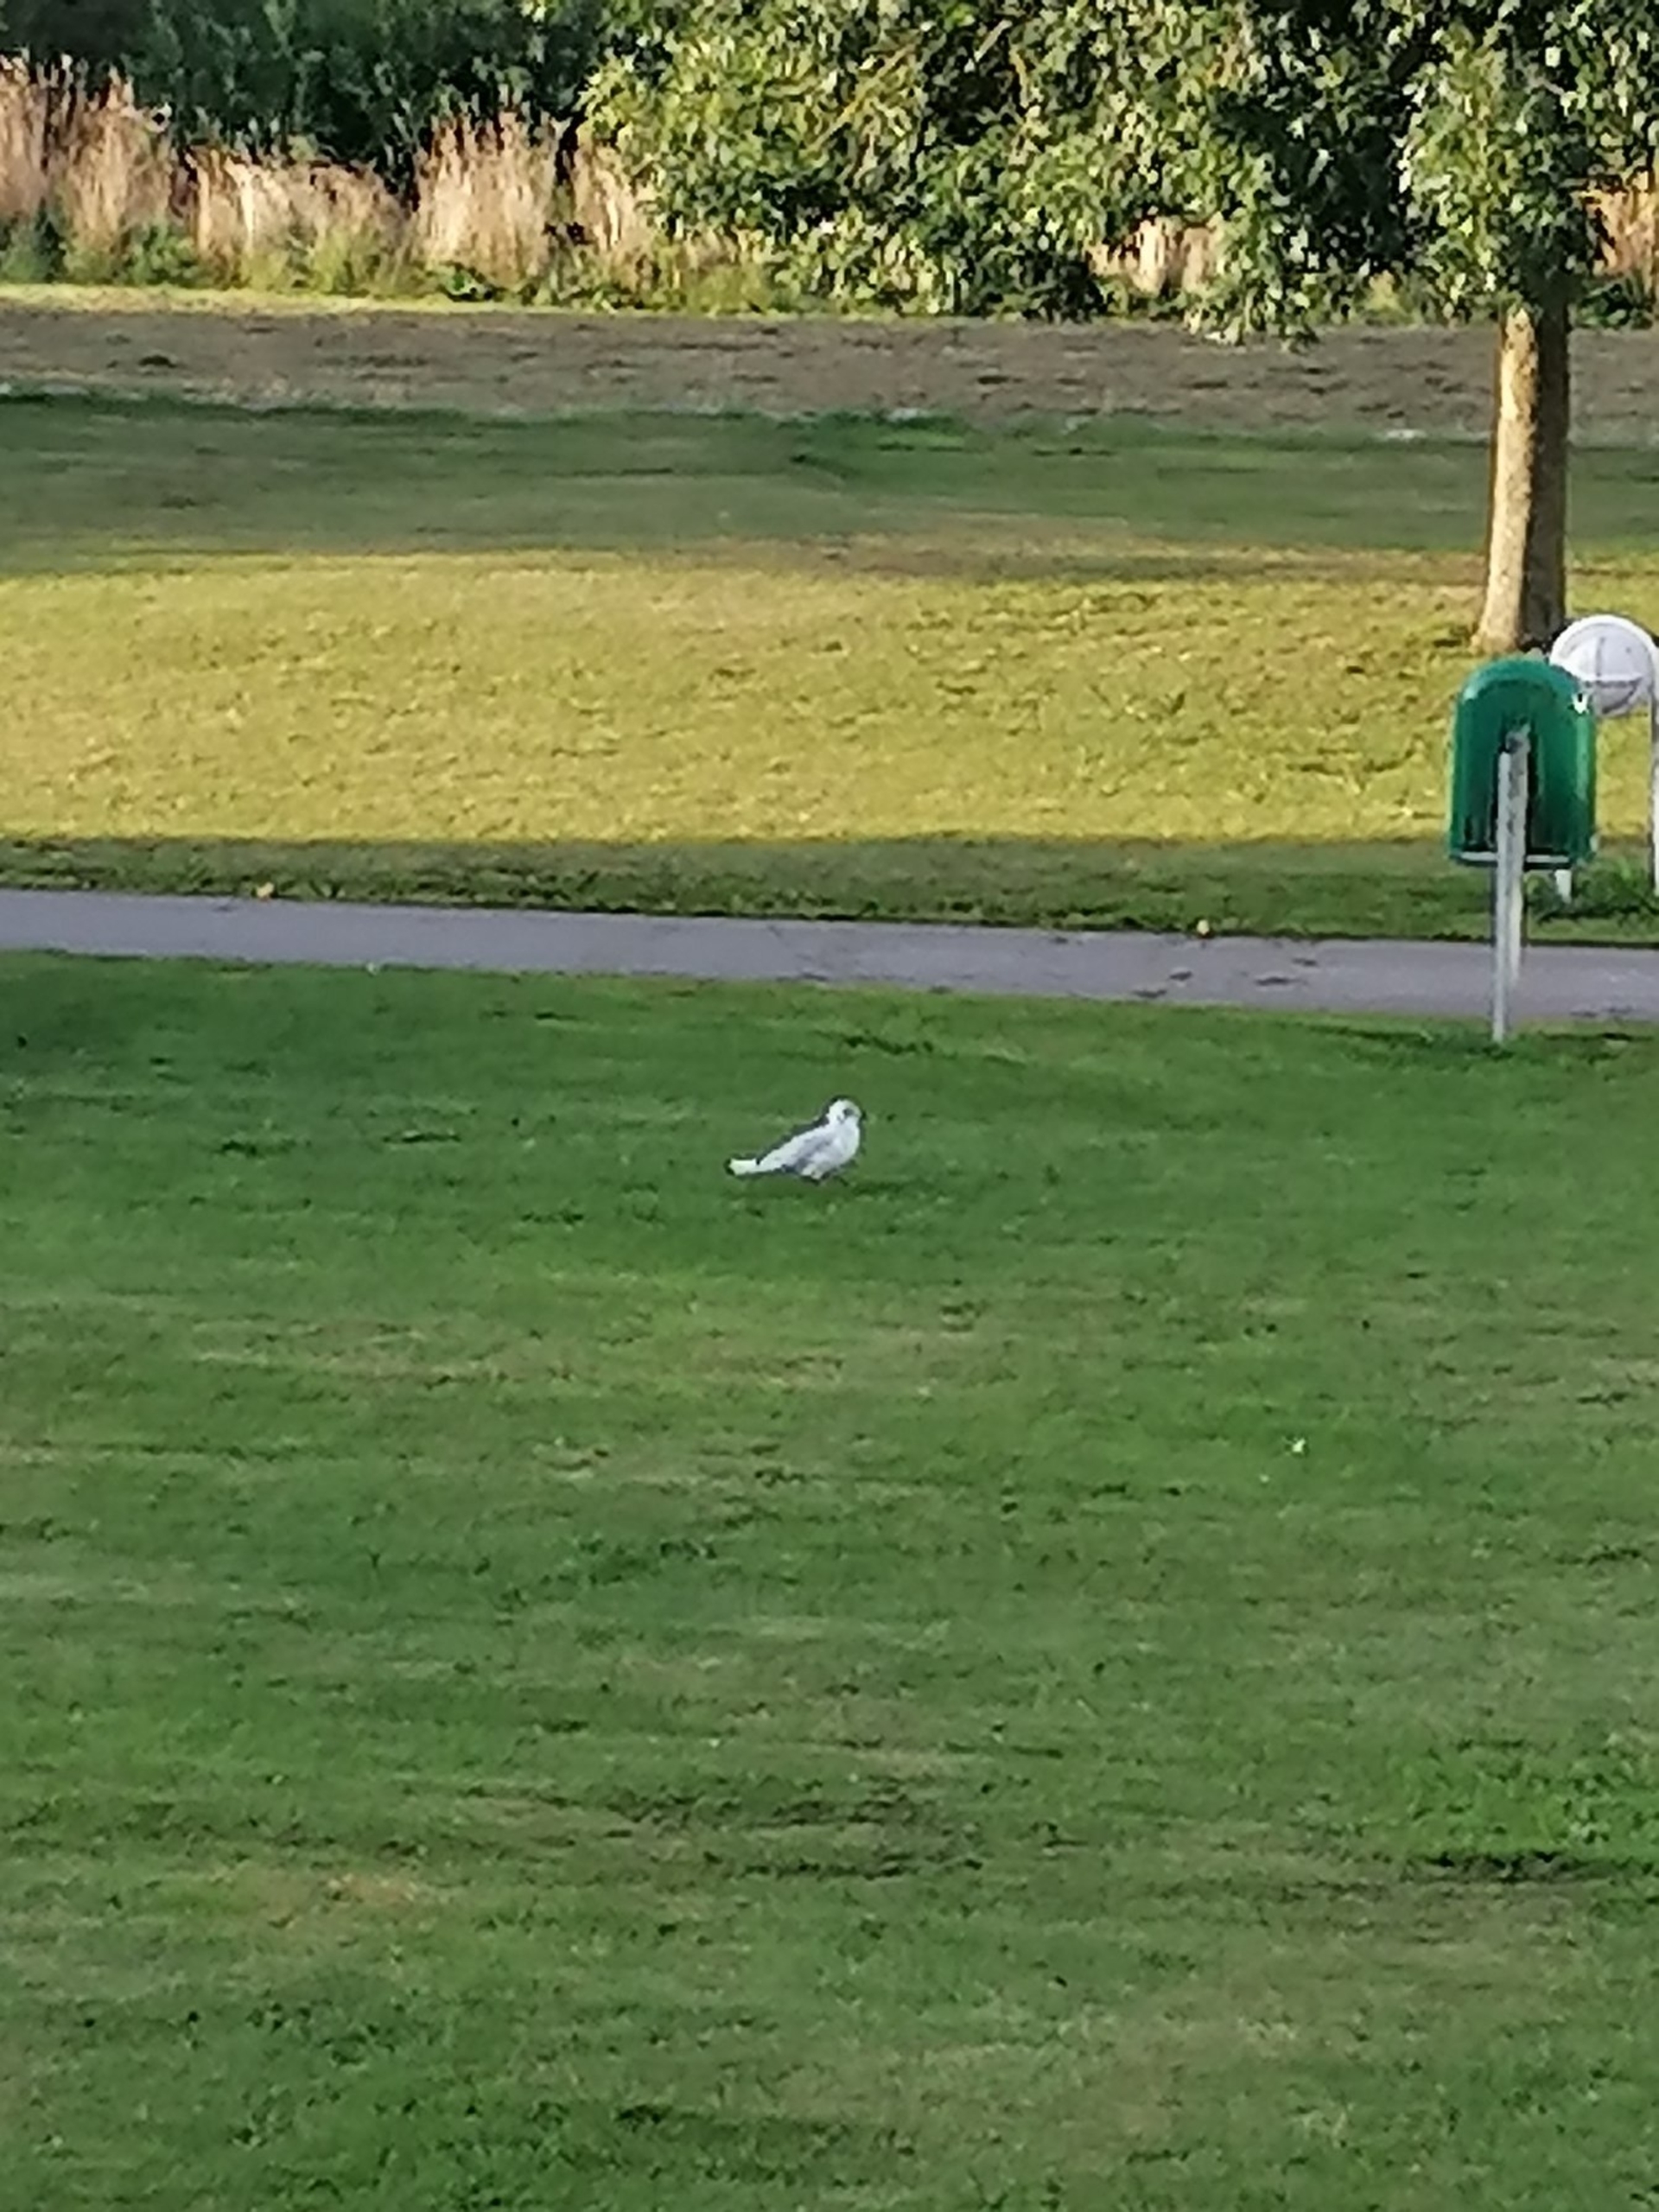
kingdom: Animalia
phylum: Chordata
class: Aves
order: Charadriiformes
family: Laridae
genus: Chroicocephalus
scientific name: Chroicocephalus ridibundus
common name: Hættemåge
